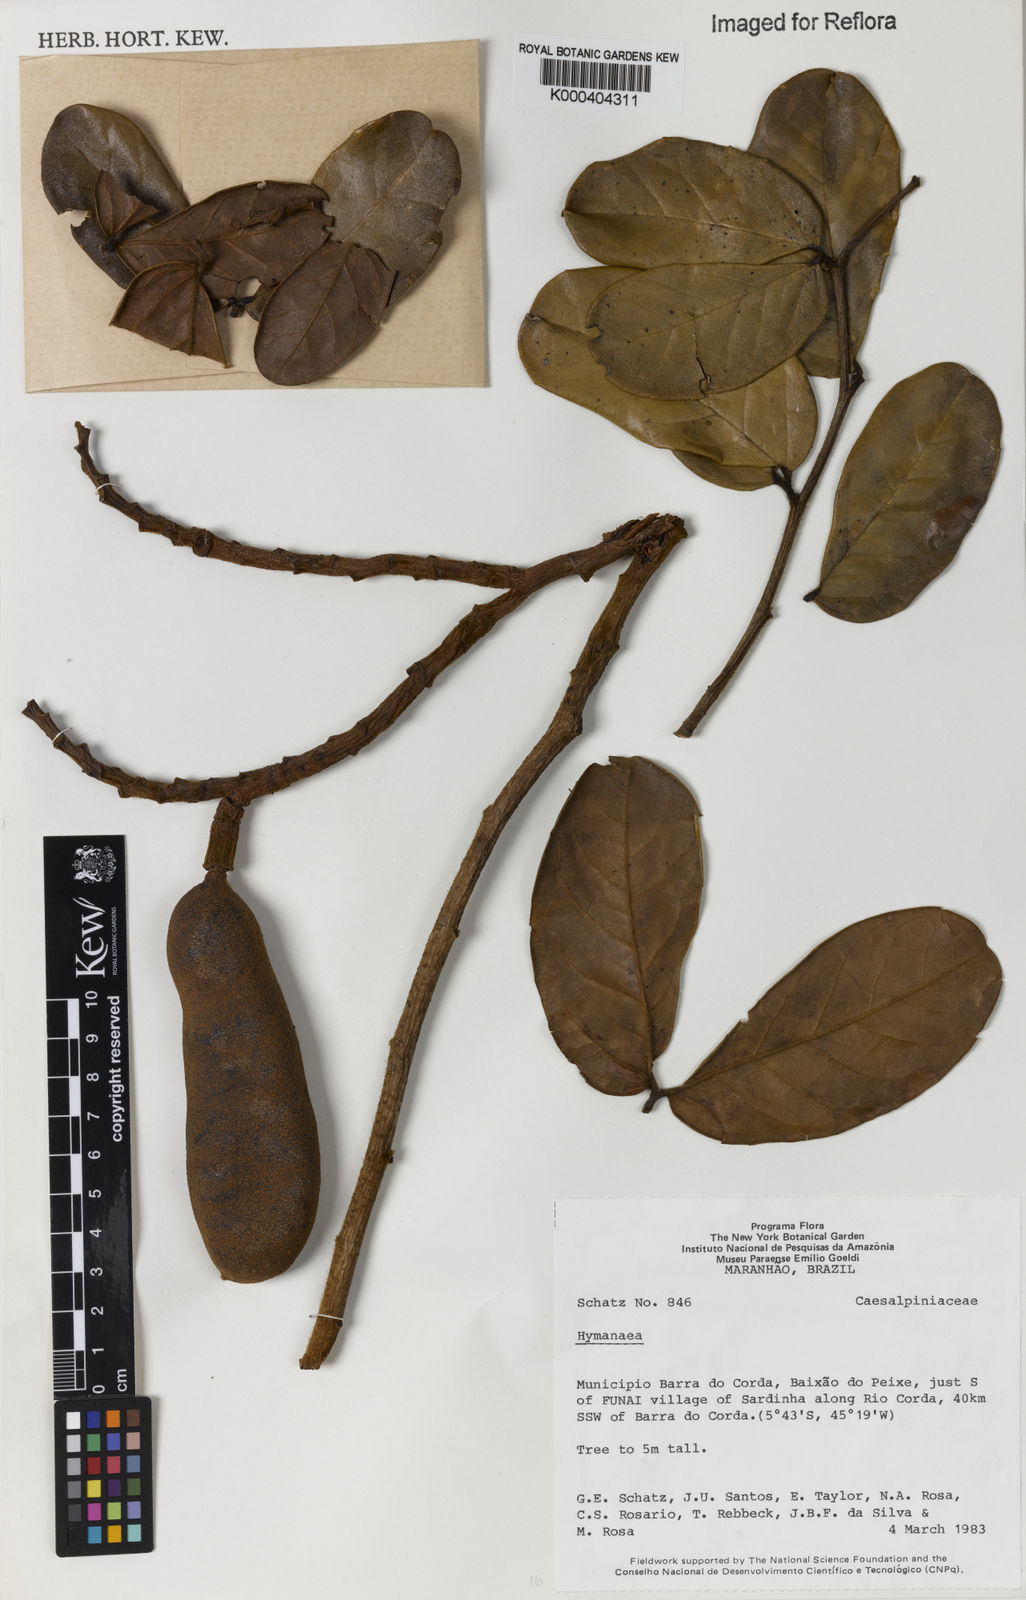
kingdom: Plantae
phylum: Tracheophyta
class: Magnoliopsida
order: Fabales
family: Fabaceae
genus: Hymenaea
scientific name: Hymenaea
